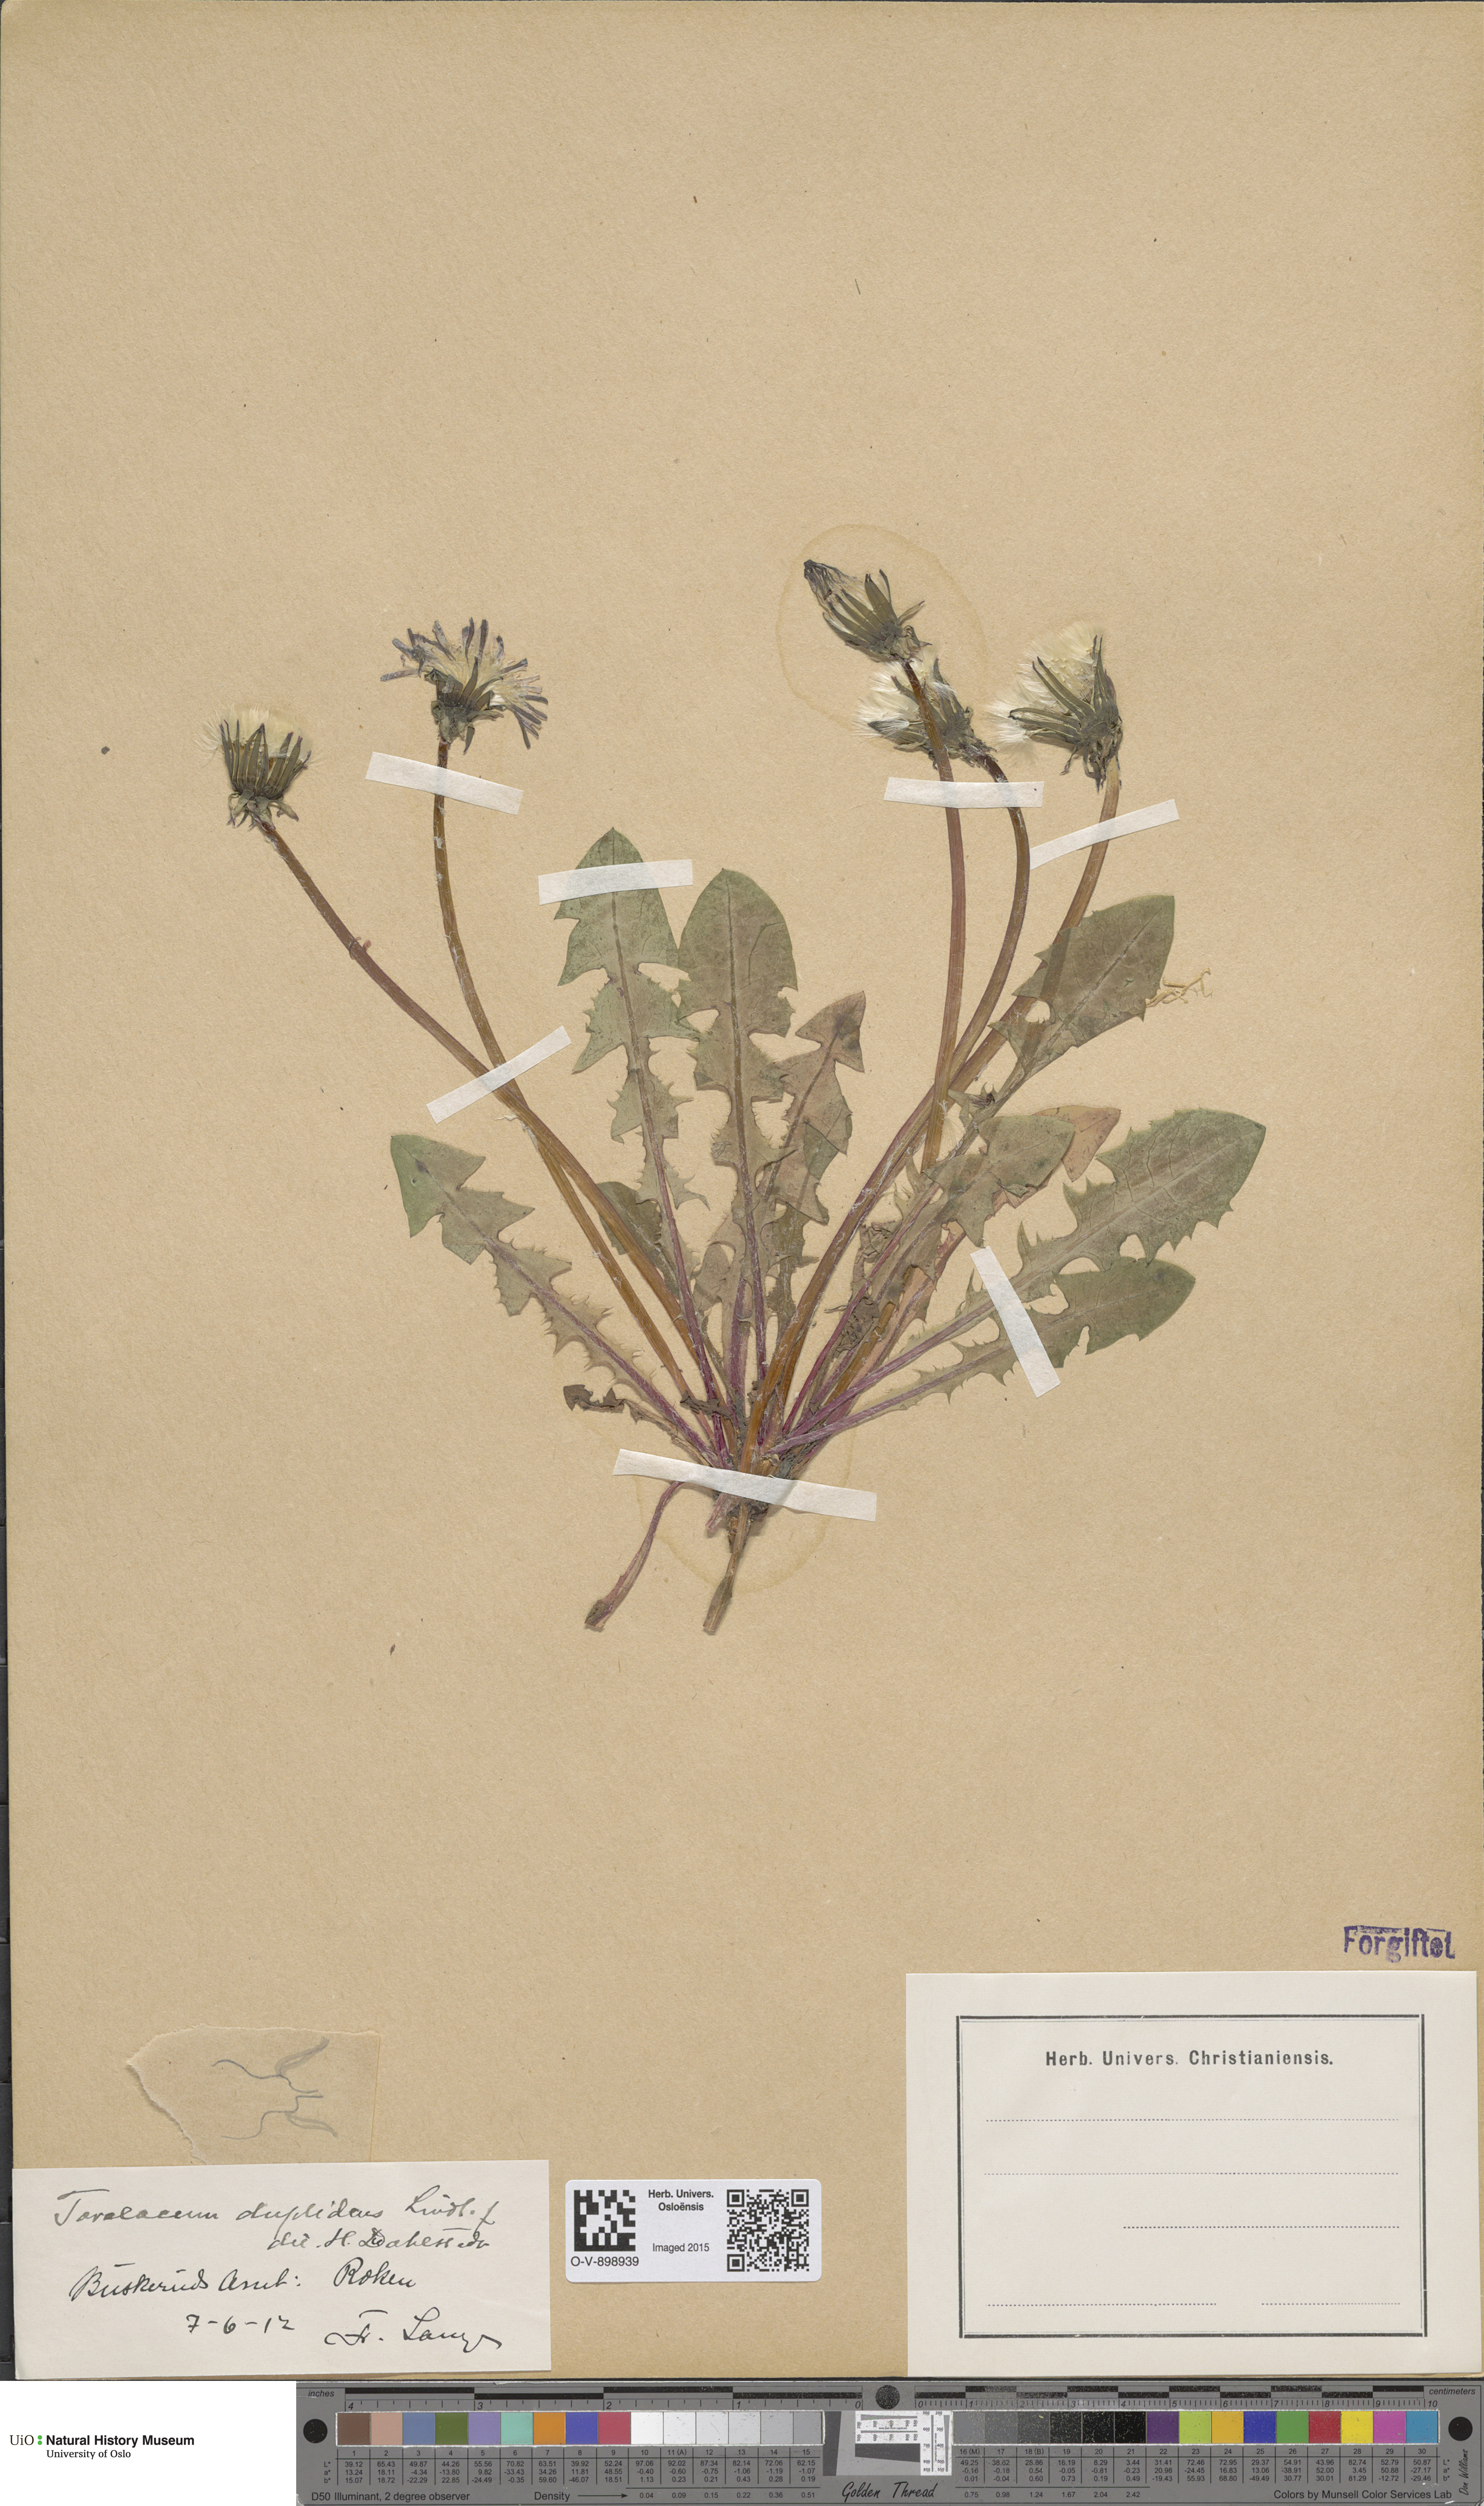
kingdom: Plantae
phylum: Tracheophyta
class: Magnoliopsida
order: Asterales
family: Asteraceae
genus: Taraxacum
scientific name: Taraxacum ostenfeldii
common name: Ostenfeld's dandelion
